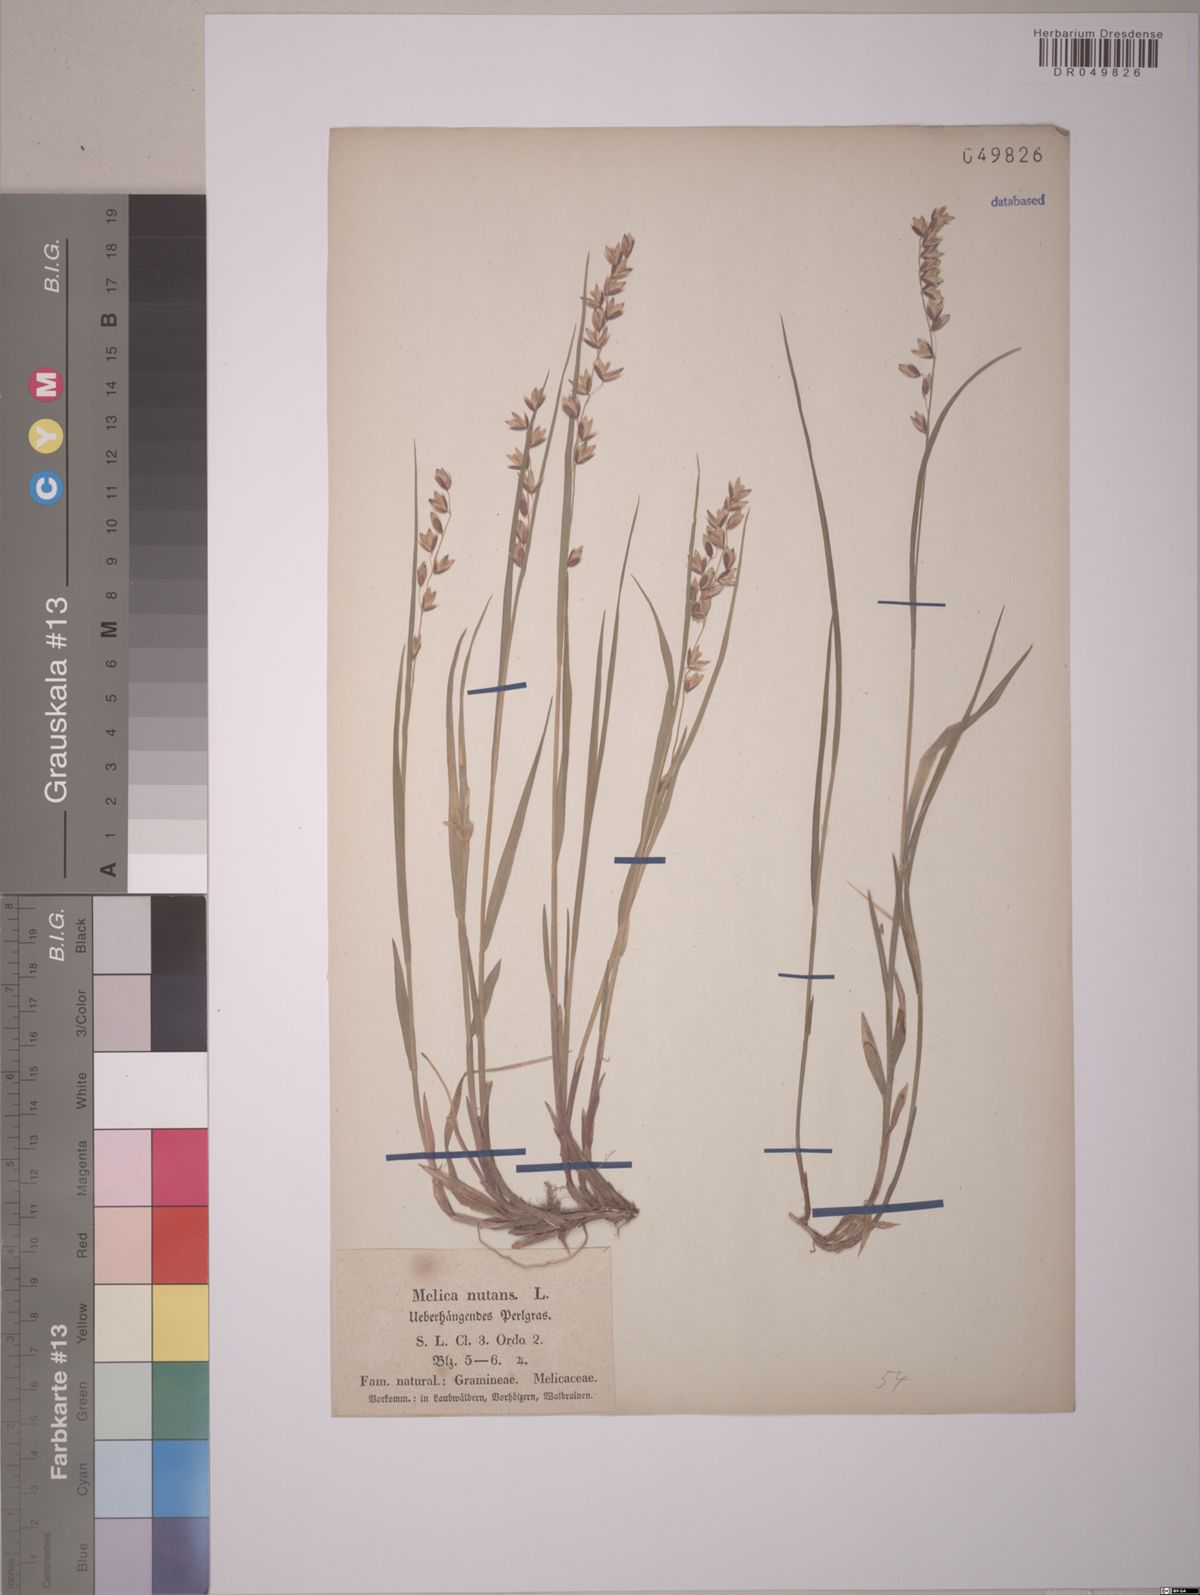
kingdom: Plantae
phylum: Tracheophyta
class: Liliopsida
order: Poales
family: Poaceae
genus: Melica
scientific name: Melica nutans
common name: Mountain melick
